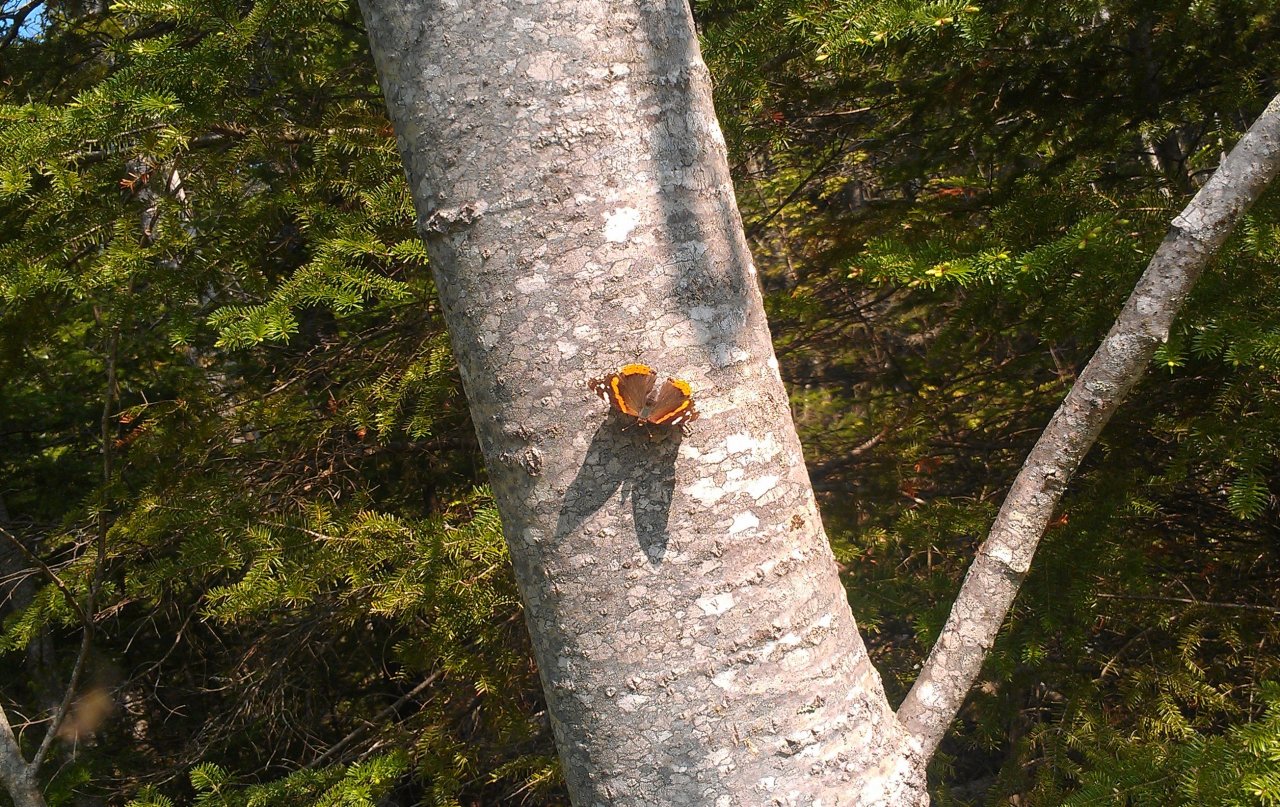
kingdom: Animalia
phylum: Arthropoda
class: Insecta
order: Lepidoptera
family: Nymphalidae
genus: Vanessa
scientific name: Vanessa atalanta
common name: Red Admiral
